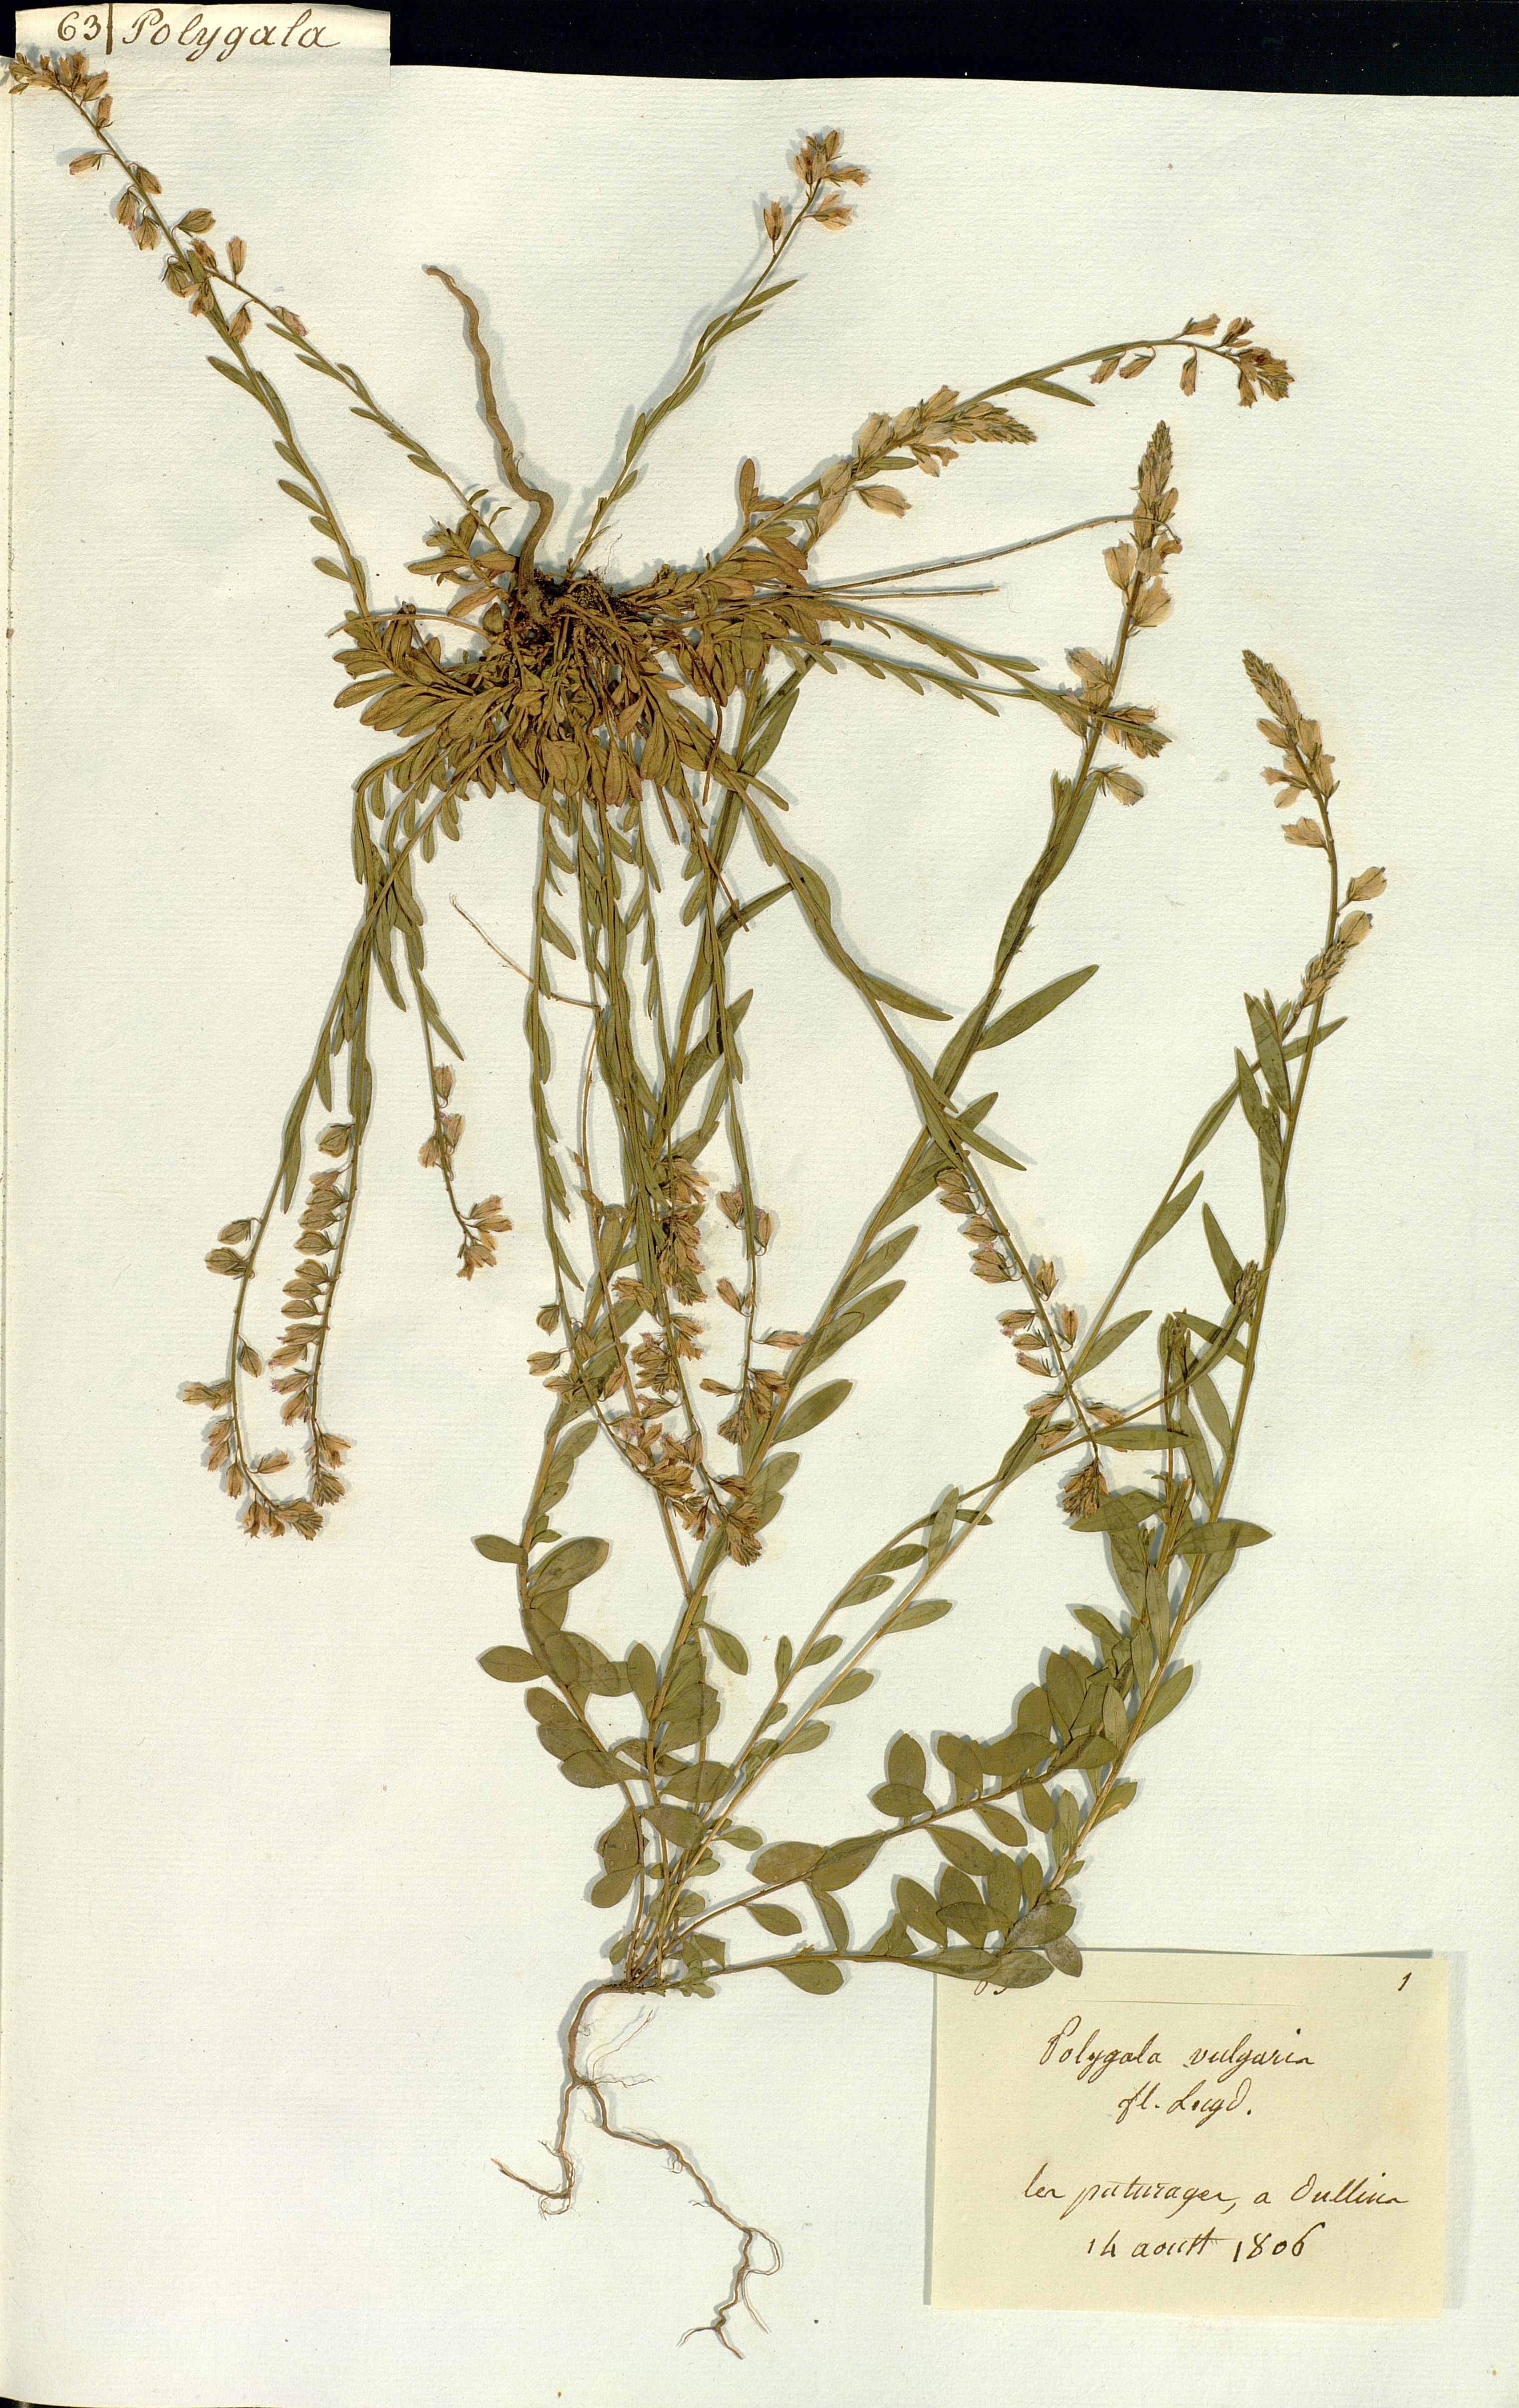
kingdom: Plantae
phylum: Tracheophyta
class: Magnoliopsida
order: Fabales
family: Polygalaceae
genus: Polygala
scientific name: Polygala vulgaris
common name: Common milkwort
